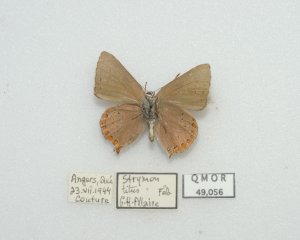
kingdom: Animalia
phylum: Arthropoda
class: Insecta
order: Lepidoptera
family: Lycaenidae
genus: Harkenclenus
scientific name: Harkenclenus titus
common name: Coral Hairstreak
